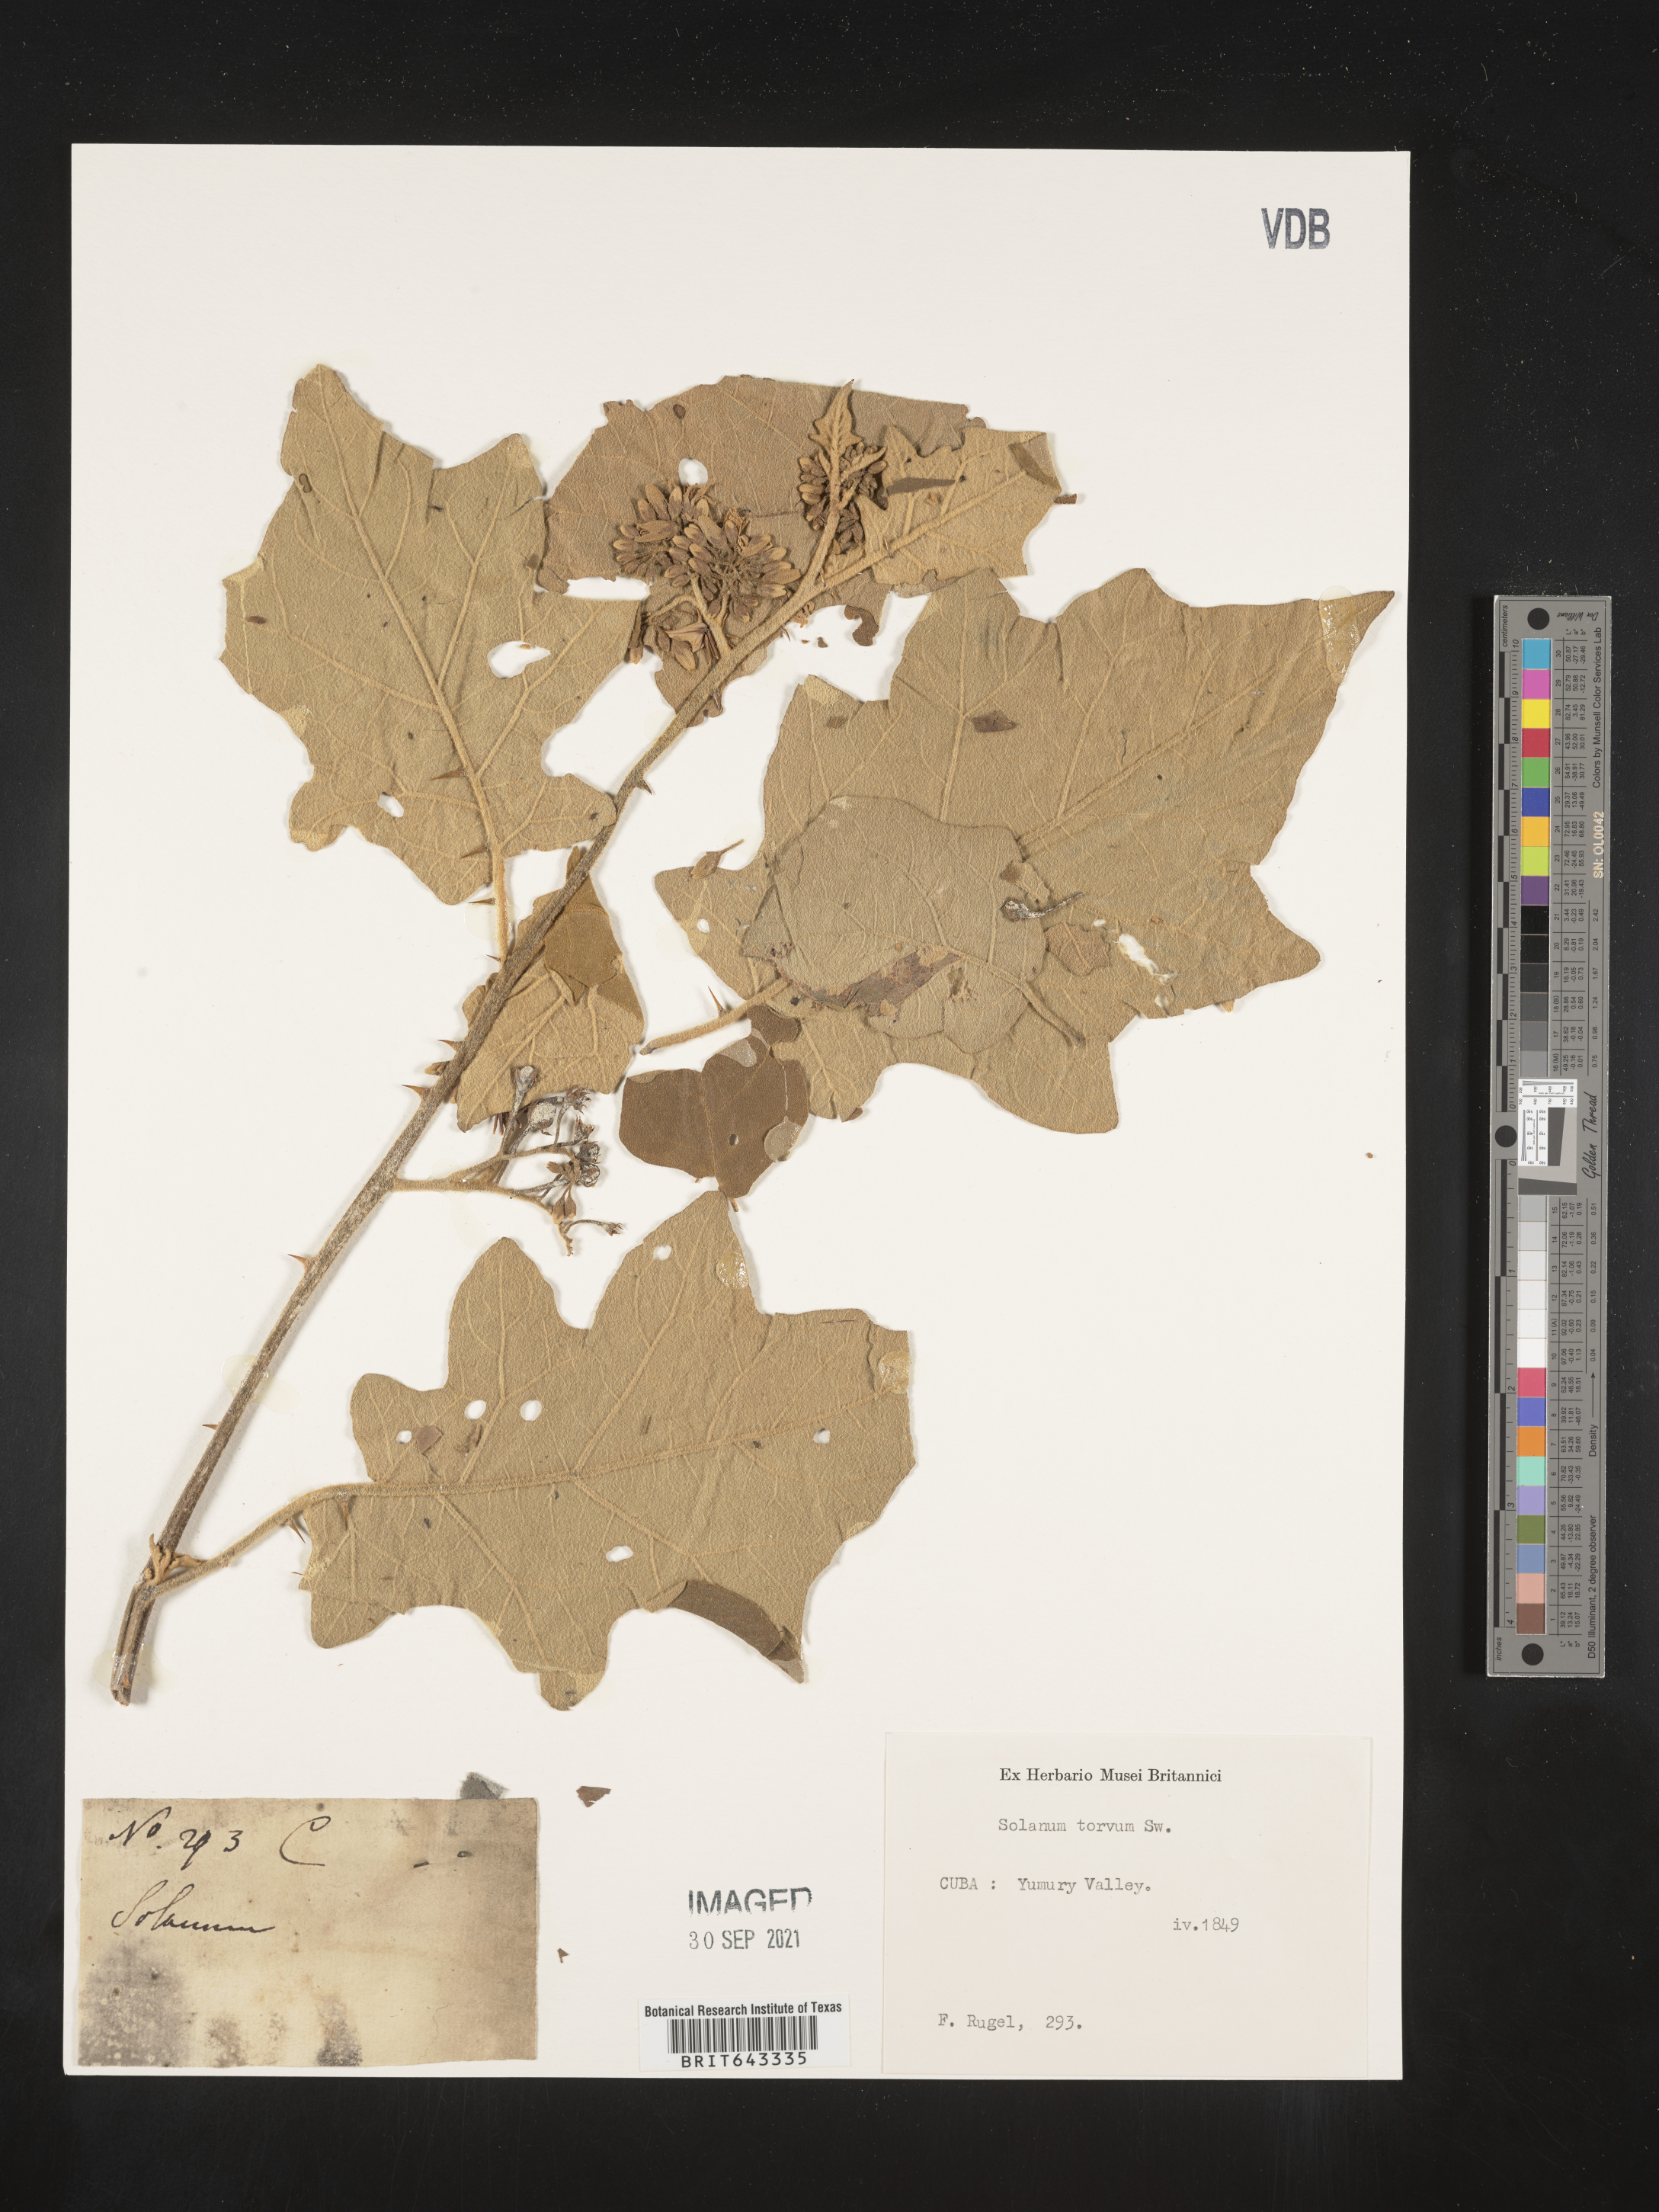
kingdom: Plantae
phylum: Tracheophyta
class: Magnoliopsida
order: Solanales
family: Solanaceae
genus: Solanum
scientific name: Solanum
